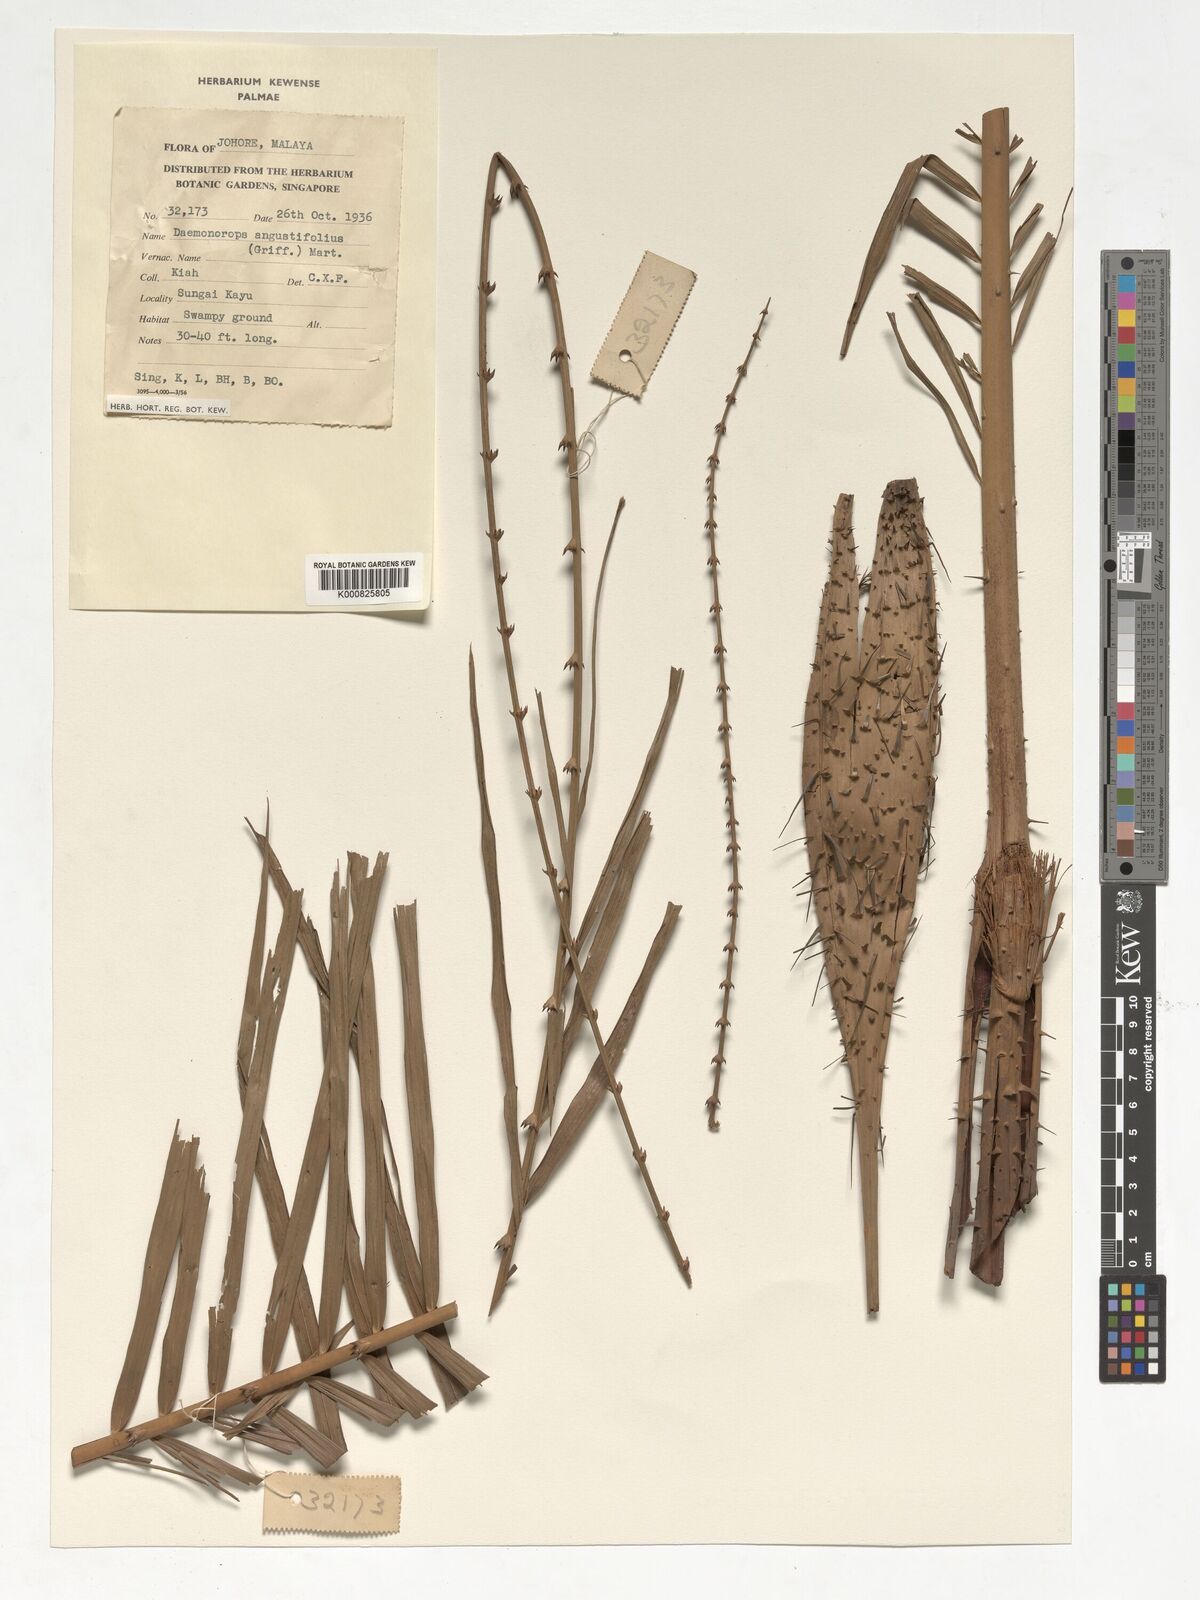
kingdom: Plantae
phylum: Tracheophyta
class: Liliopsida
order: Arecales
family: Arecaceae
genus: Calamus
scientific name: Calamus melanochaetes
